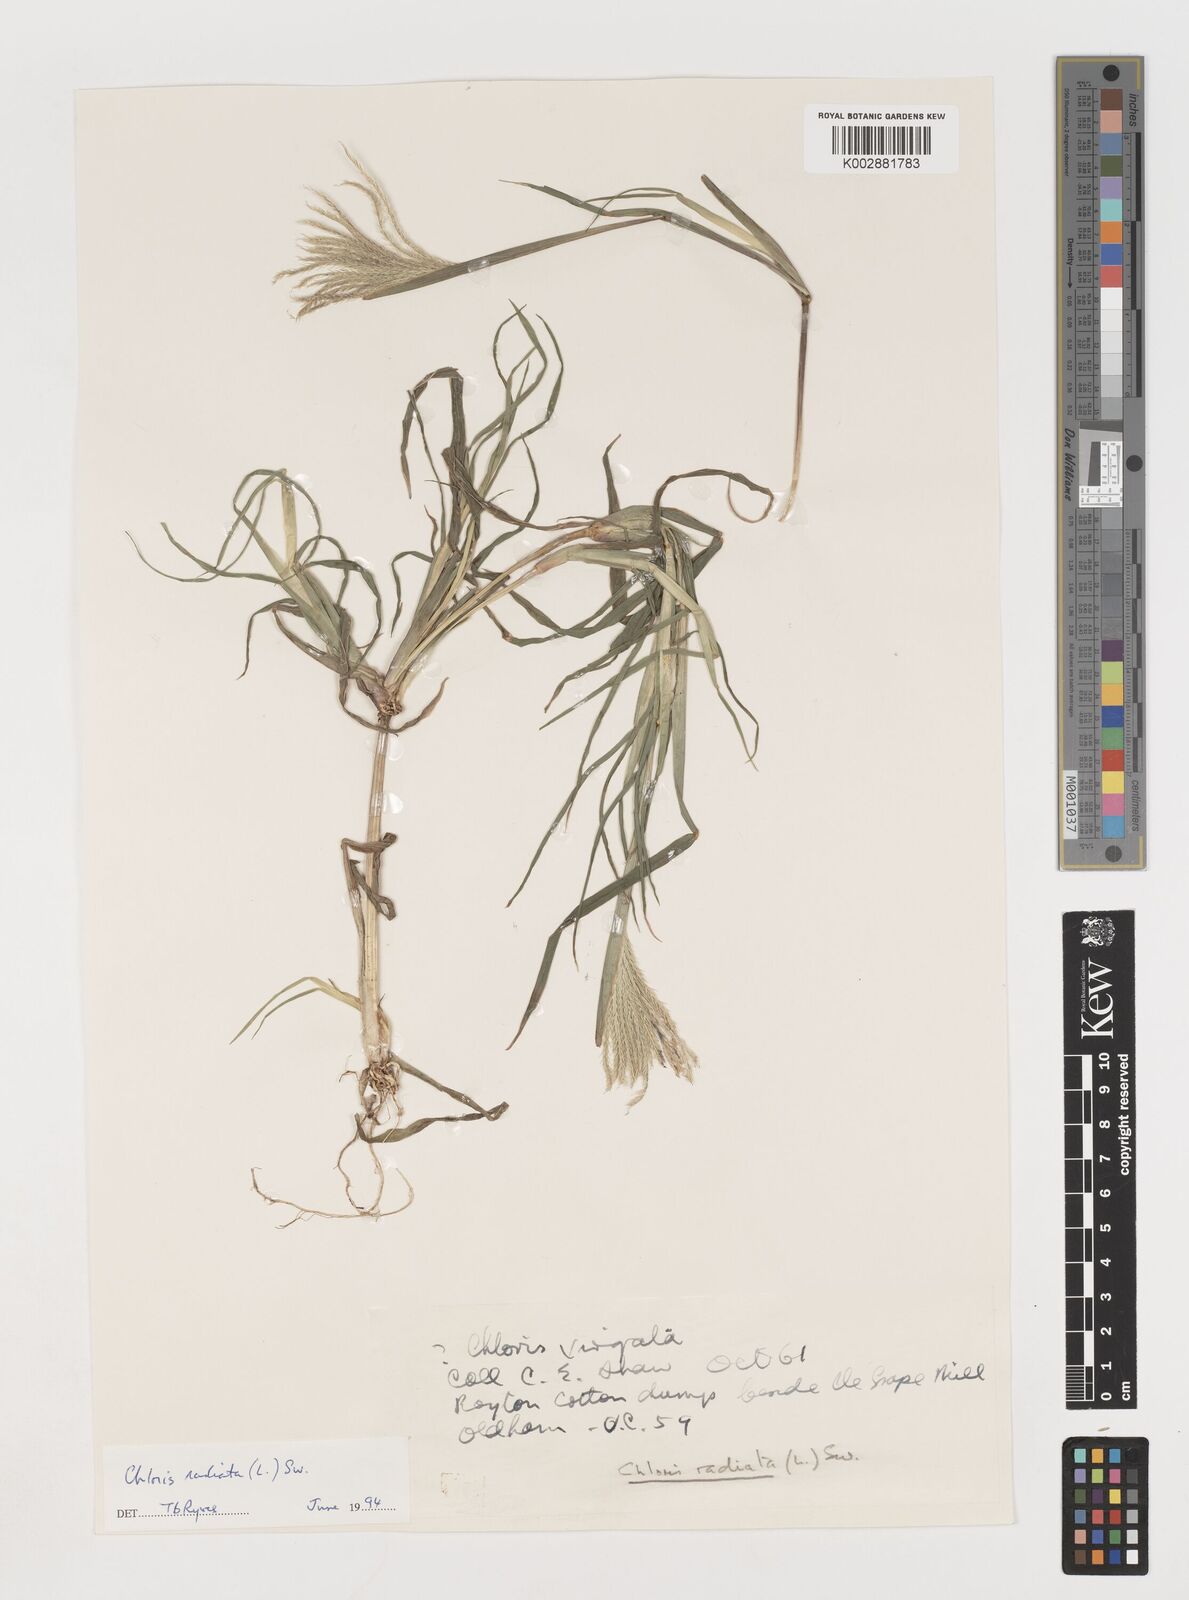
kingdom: Plantae
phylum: Tracheophyta
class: Liliopsida
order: Poales
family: Poaceae
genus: Chloris
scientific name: Chloris radiata
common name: Radiate fingergrass
